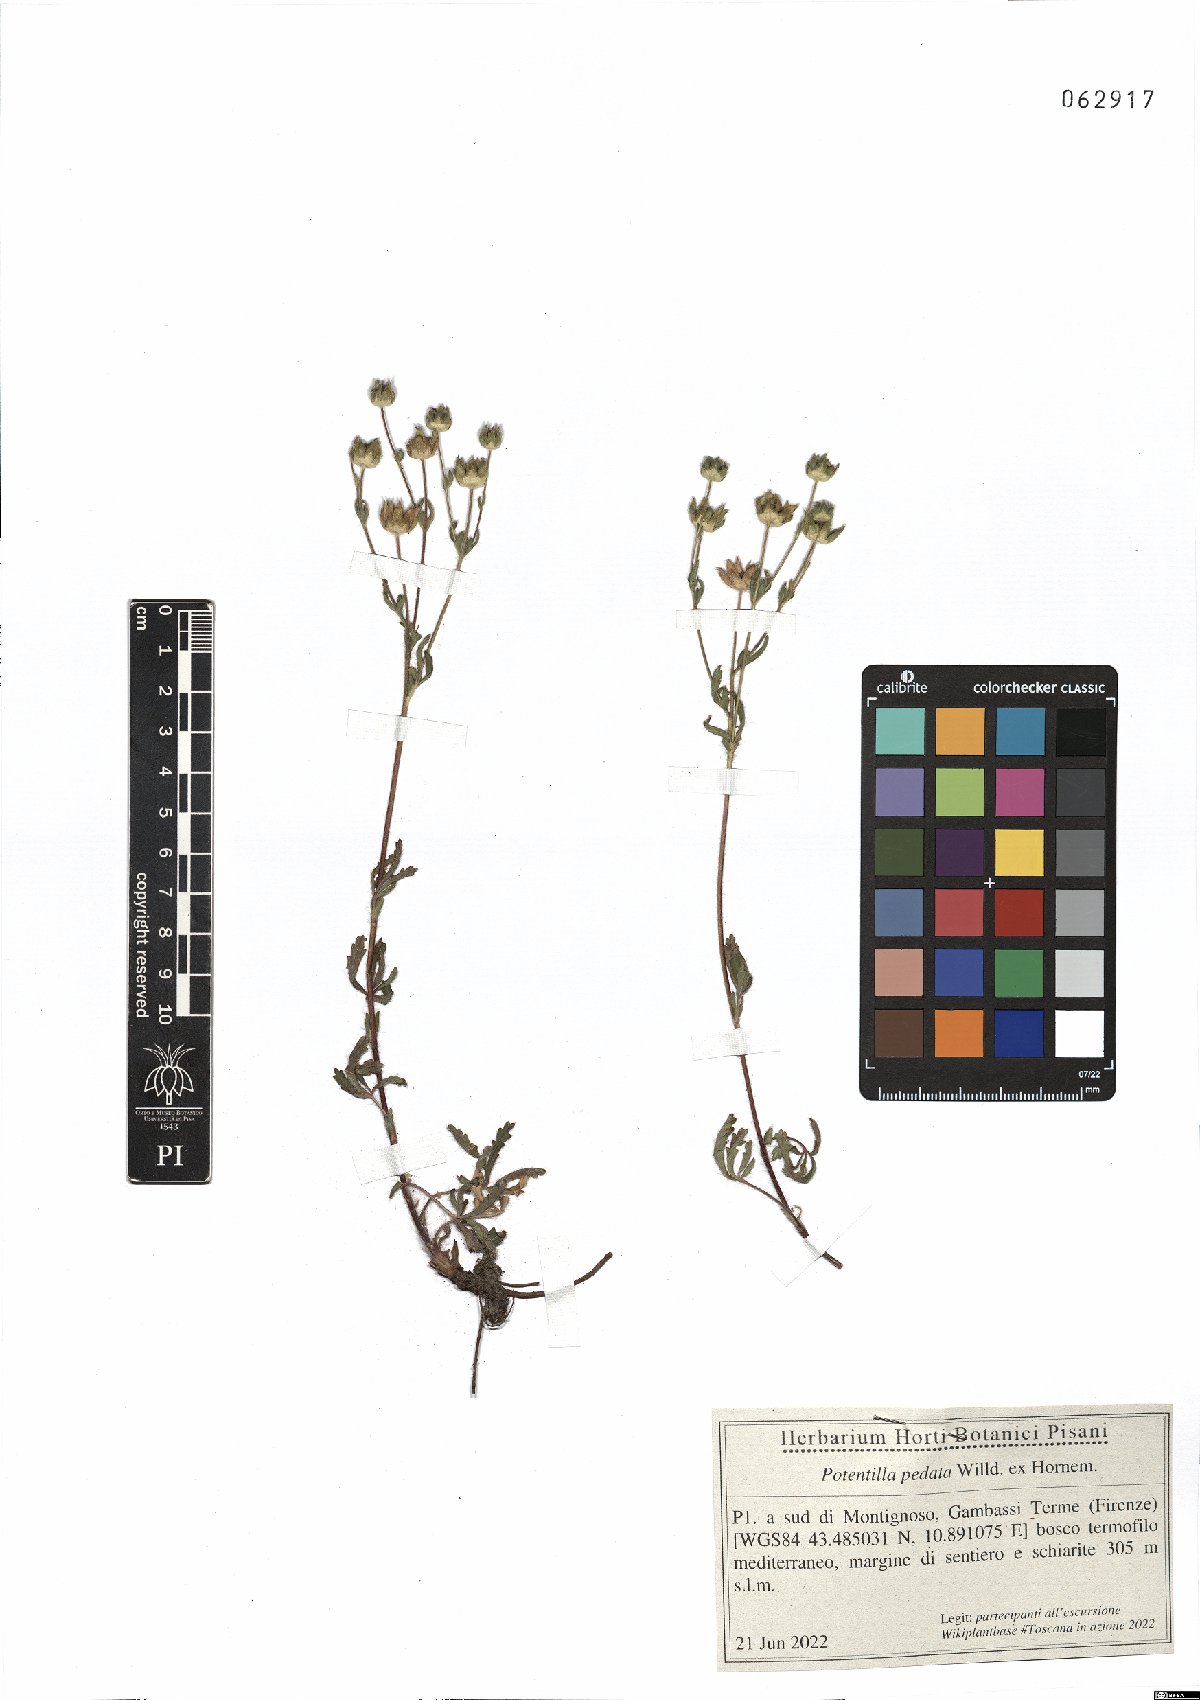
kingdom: Plantae
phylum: Tracheophyta
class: Magnoliopsida
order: Rosales
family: Rosaceae
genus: Potentilla
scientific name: Potentilla pedata
